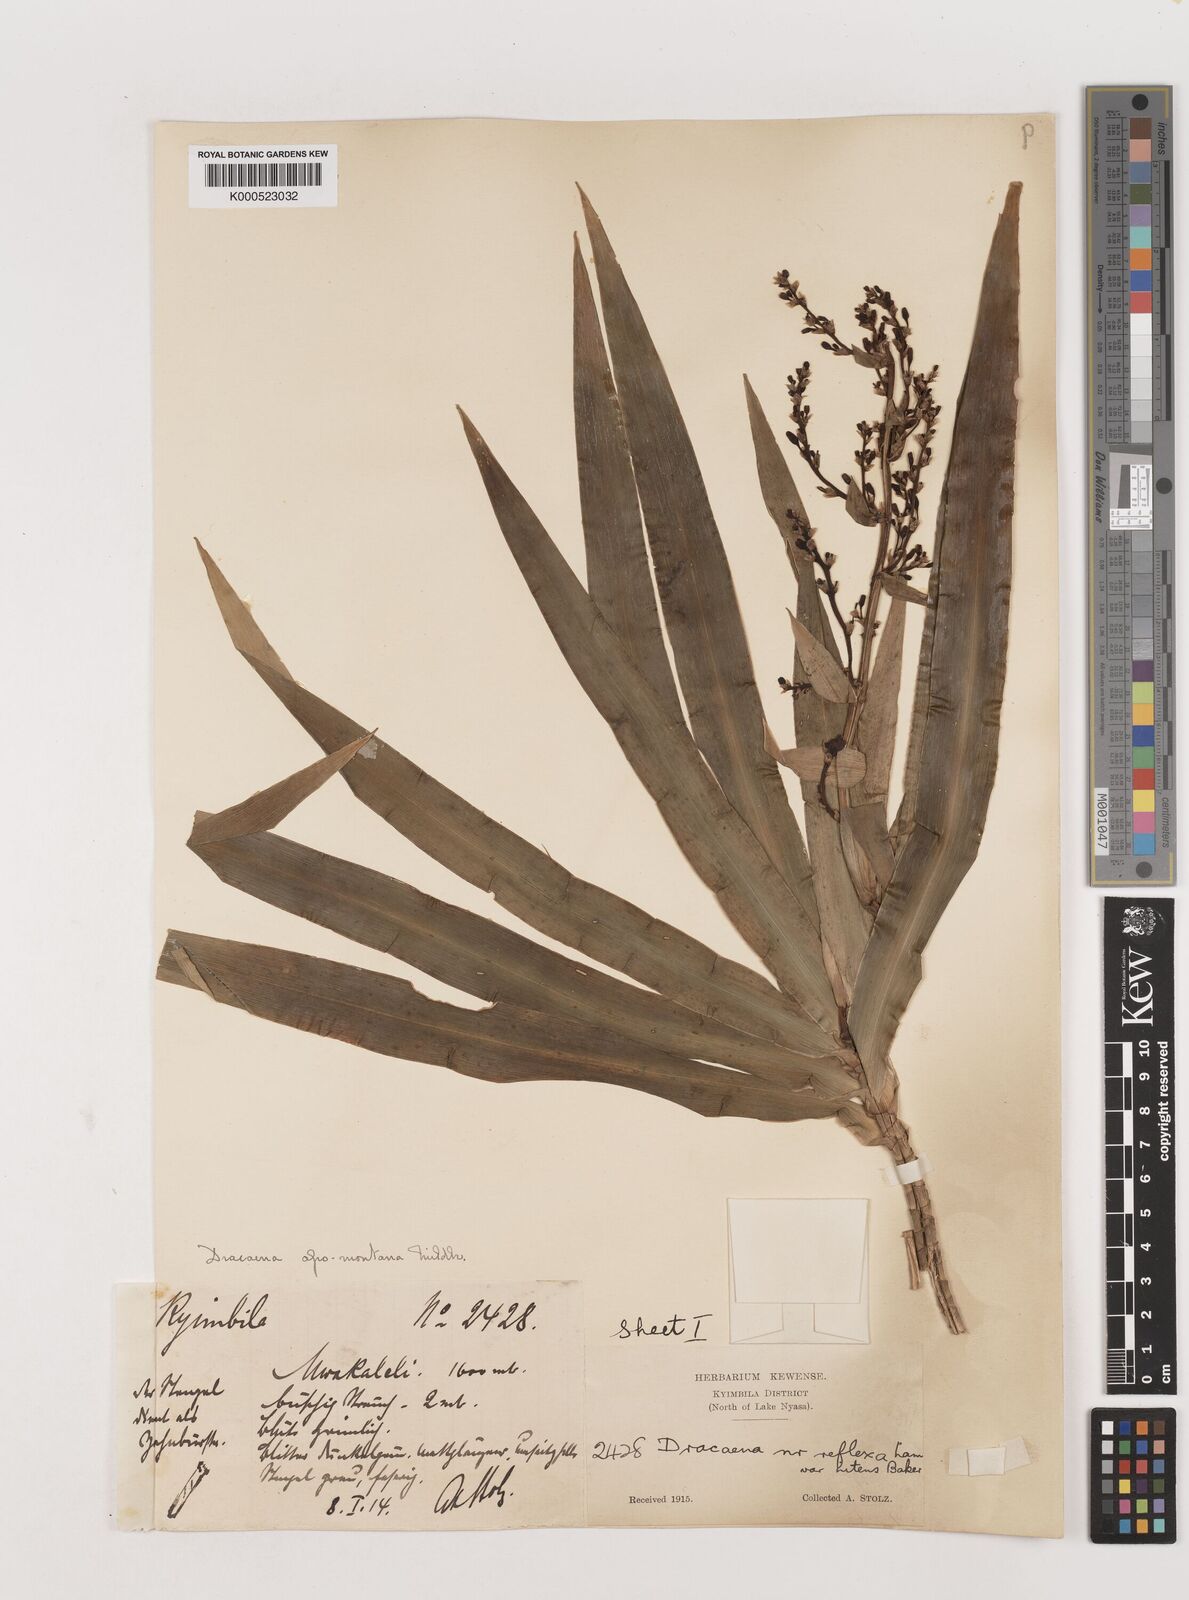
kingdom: Plantae
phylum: Tracheophyta
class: Liliopsida
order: Asparagales
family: Asparagaceae
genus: Dracaena
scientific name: Dracaena afromontana
